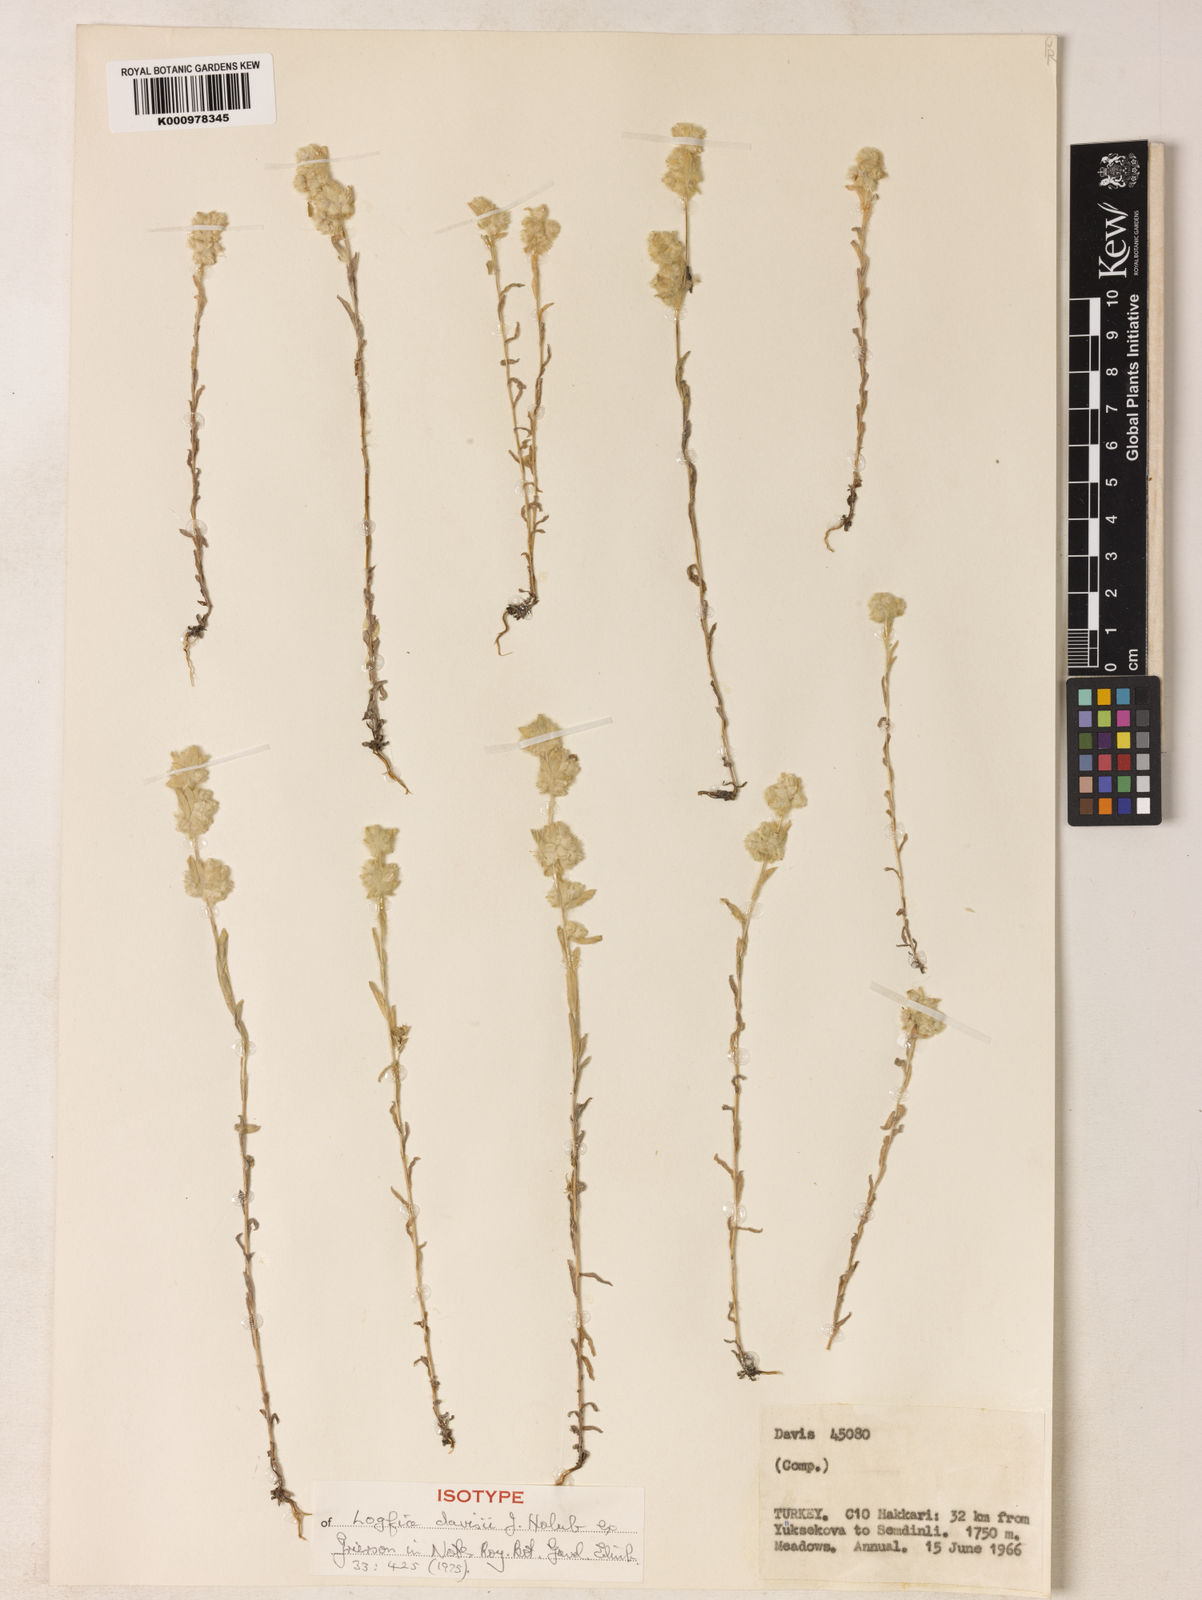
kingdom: Plantae
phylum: Tracheophyta
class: Magnoliopsida
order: Asterales
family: Asteraceae
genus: Filago
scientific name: Filago
